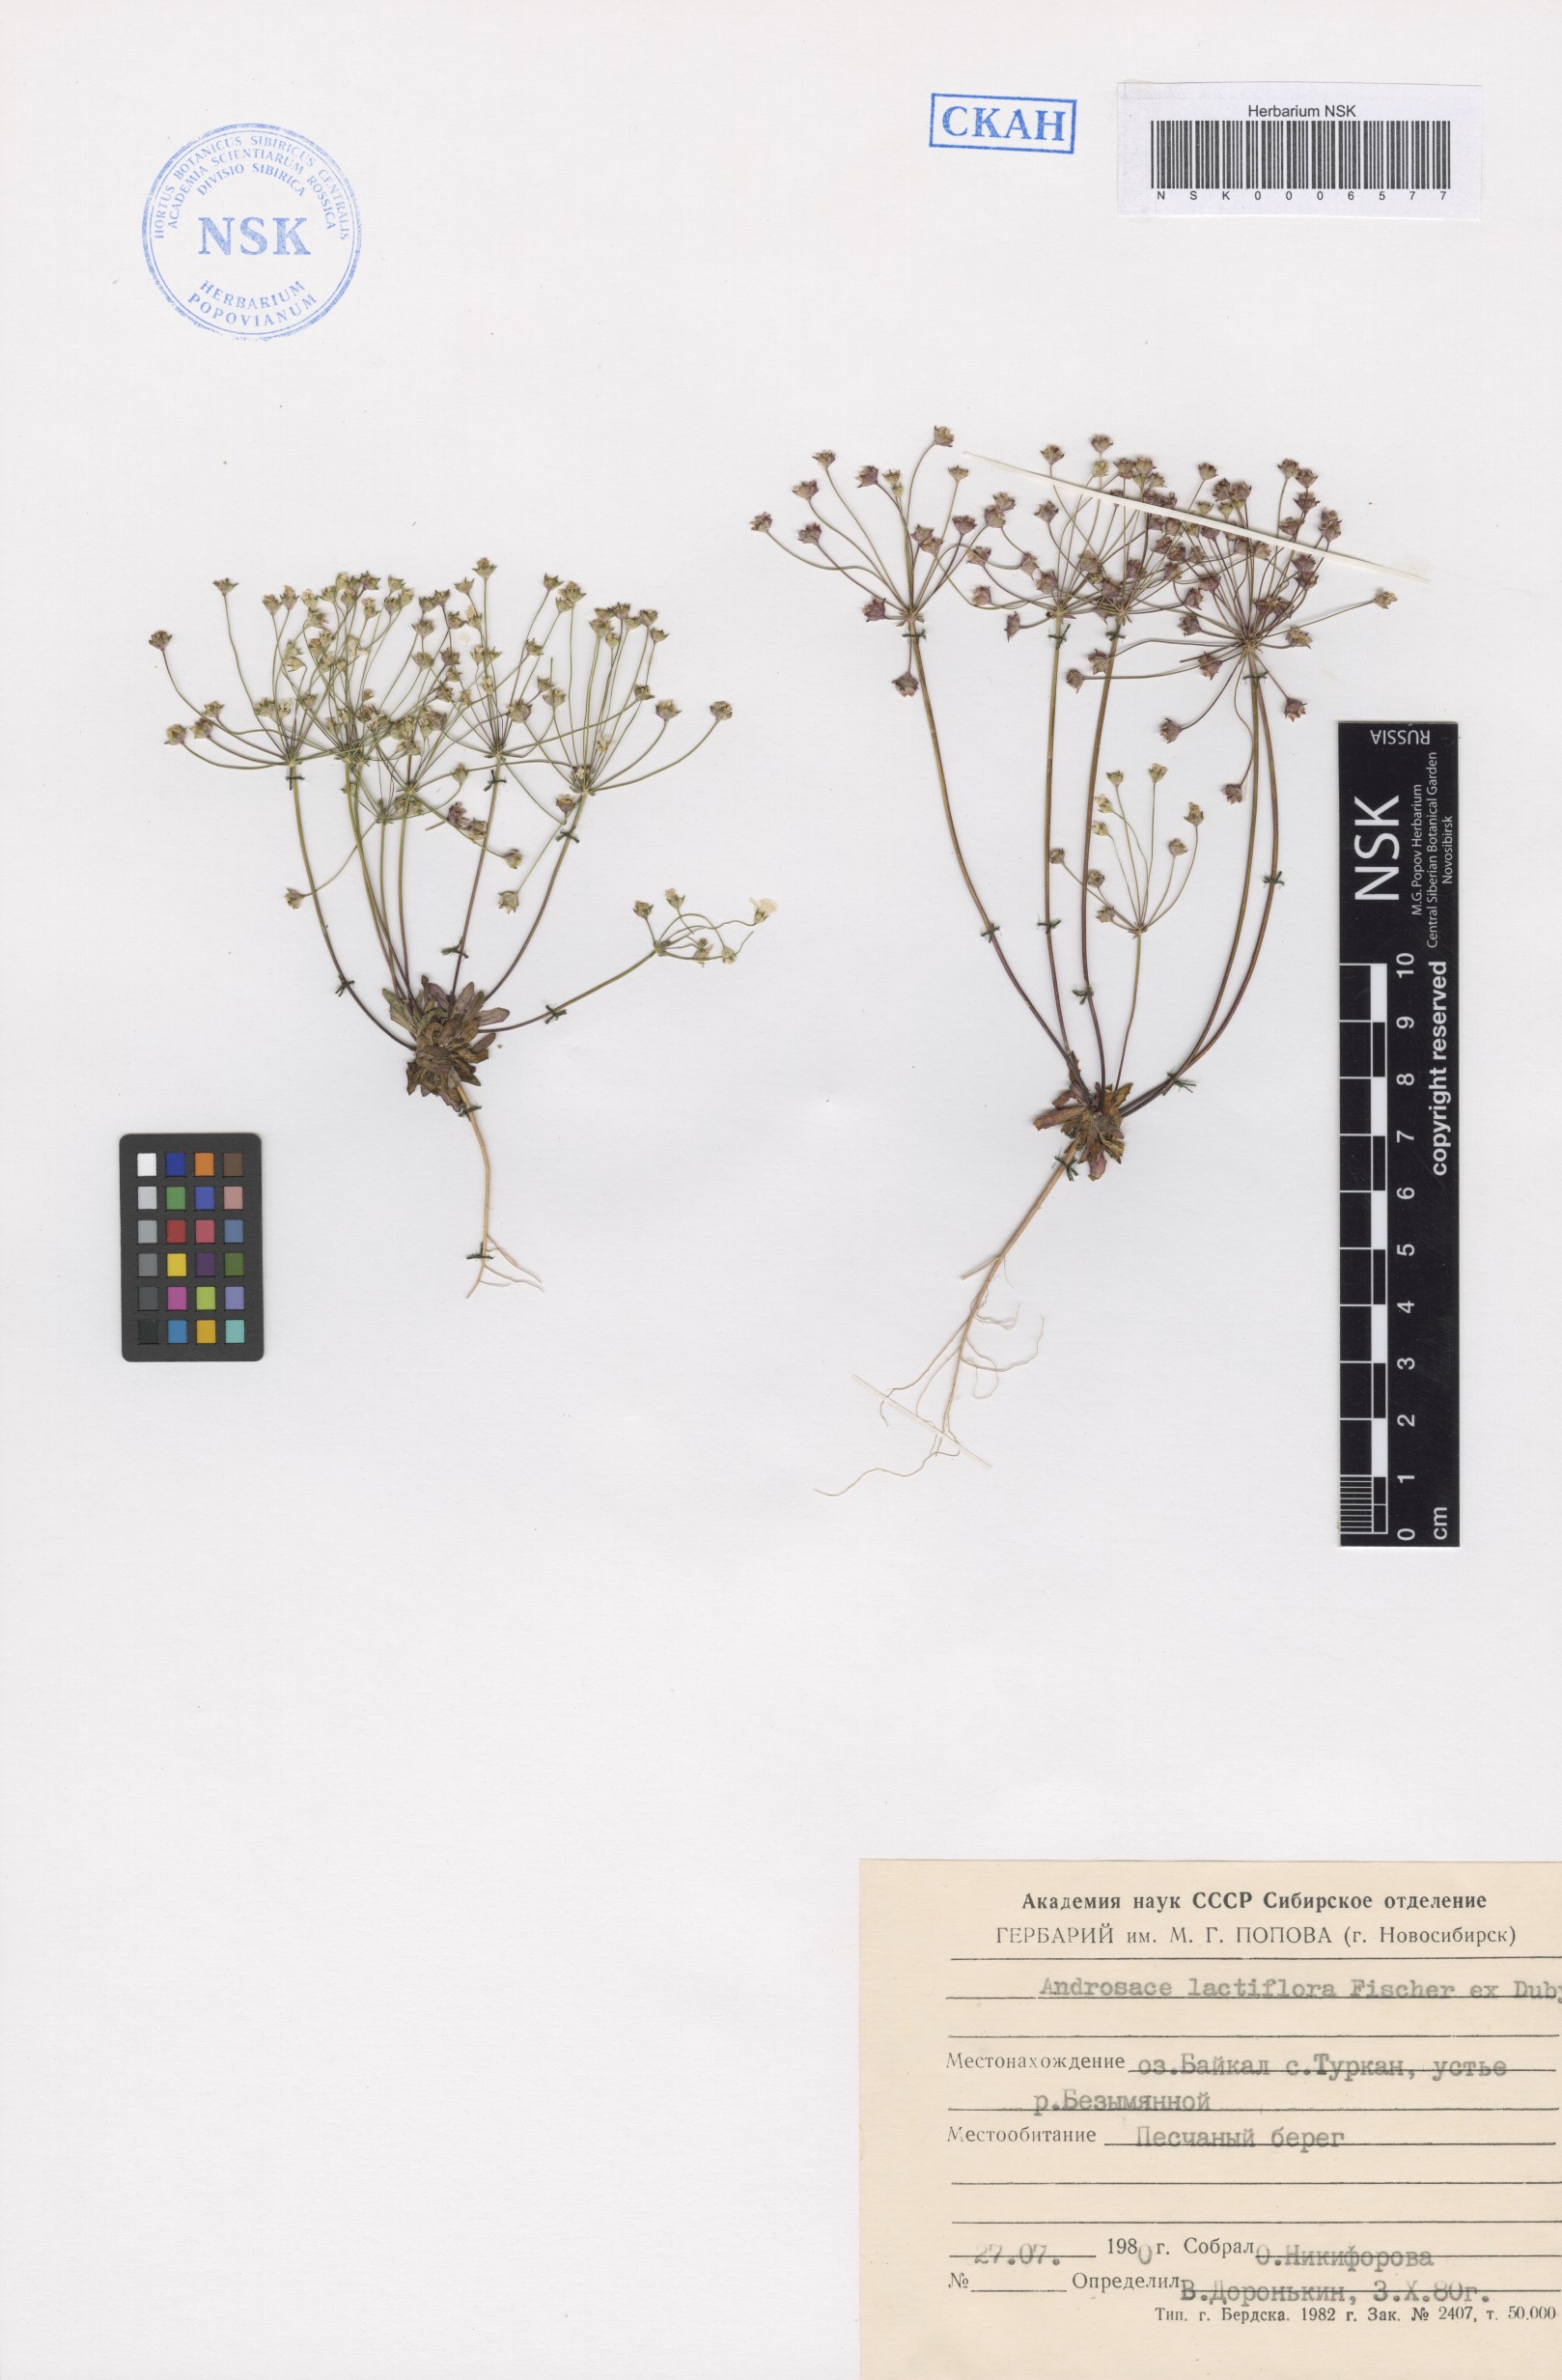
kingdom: Plantae
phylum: Tracheophyta
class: Magnoliopsida
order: Ericales
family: Primulaceae
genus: Androsace
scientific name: Androsace lactiflora
